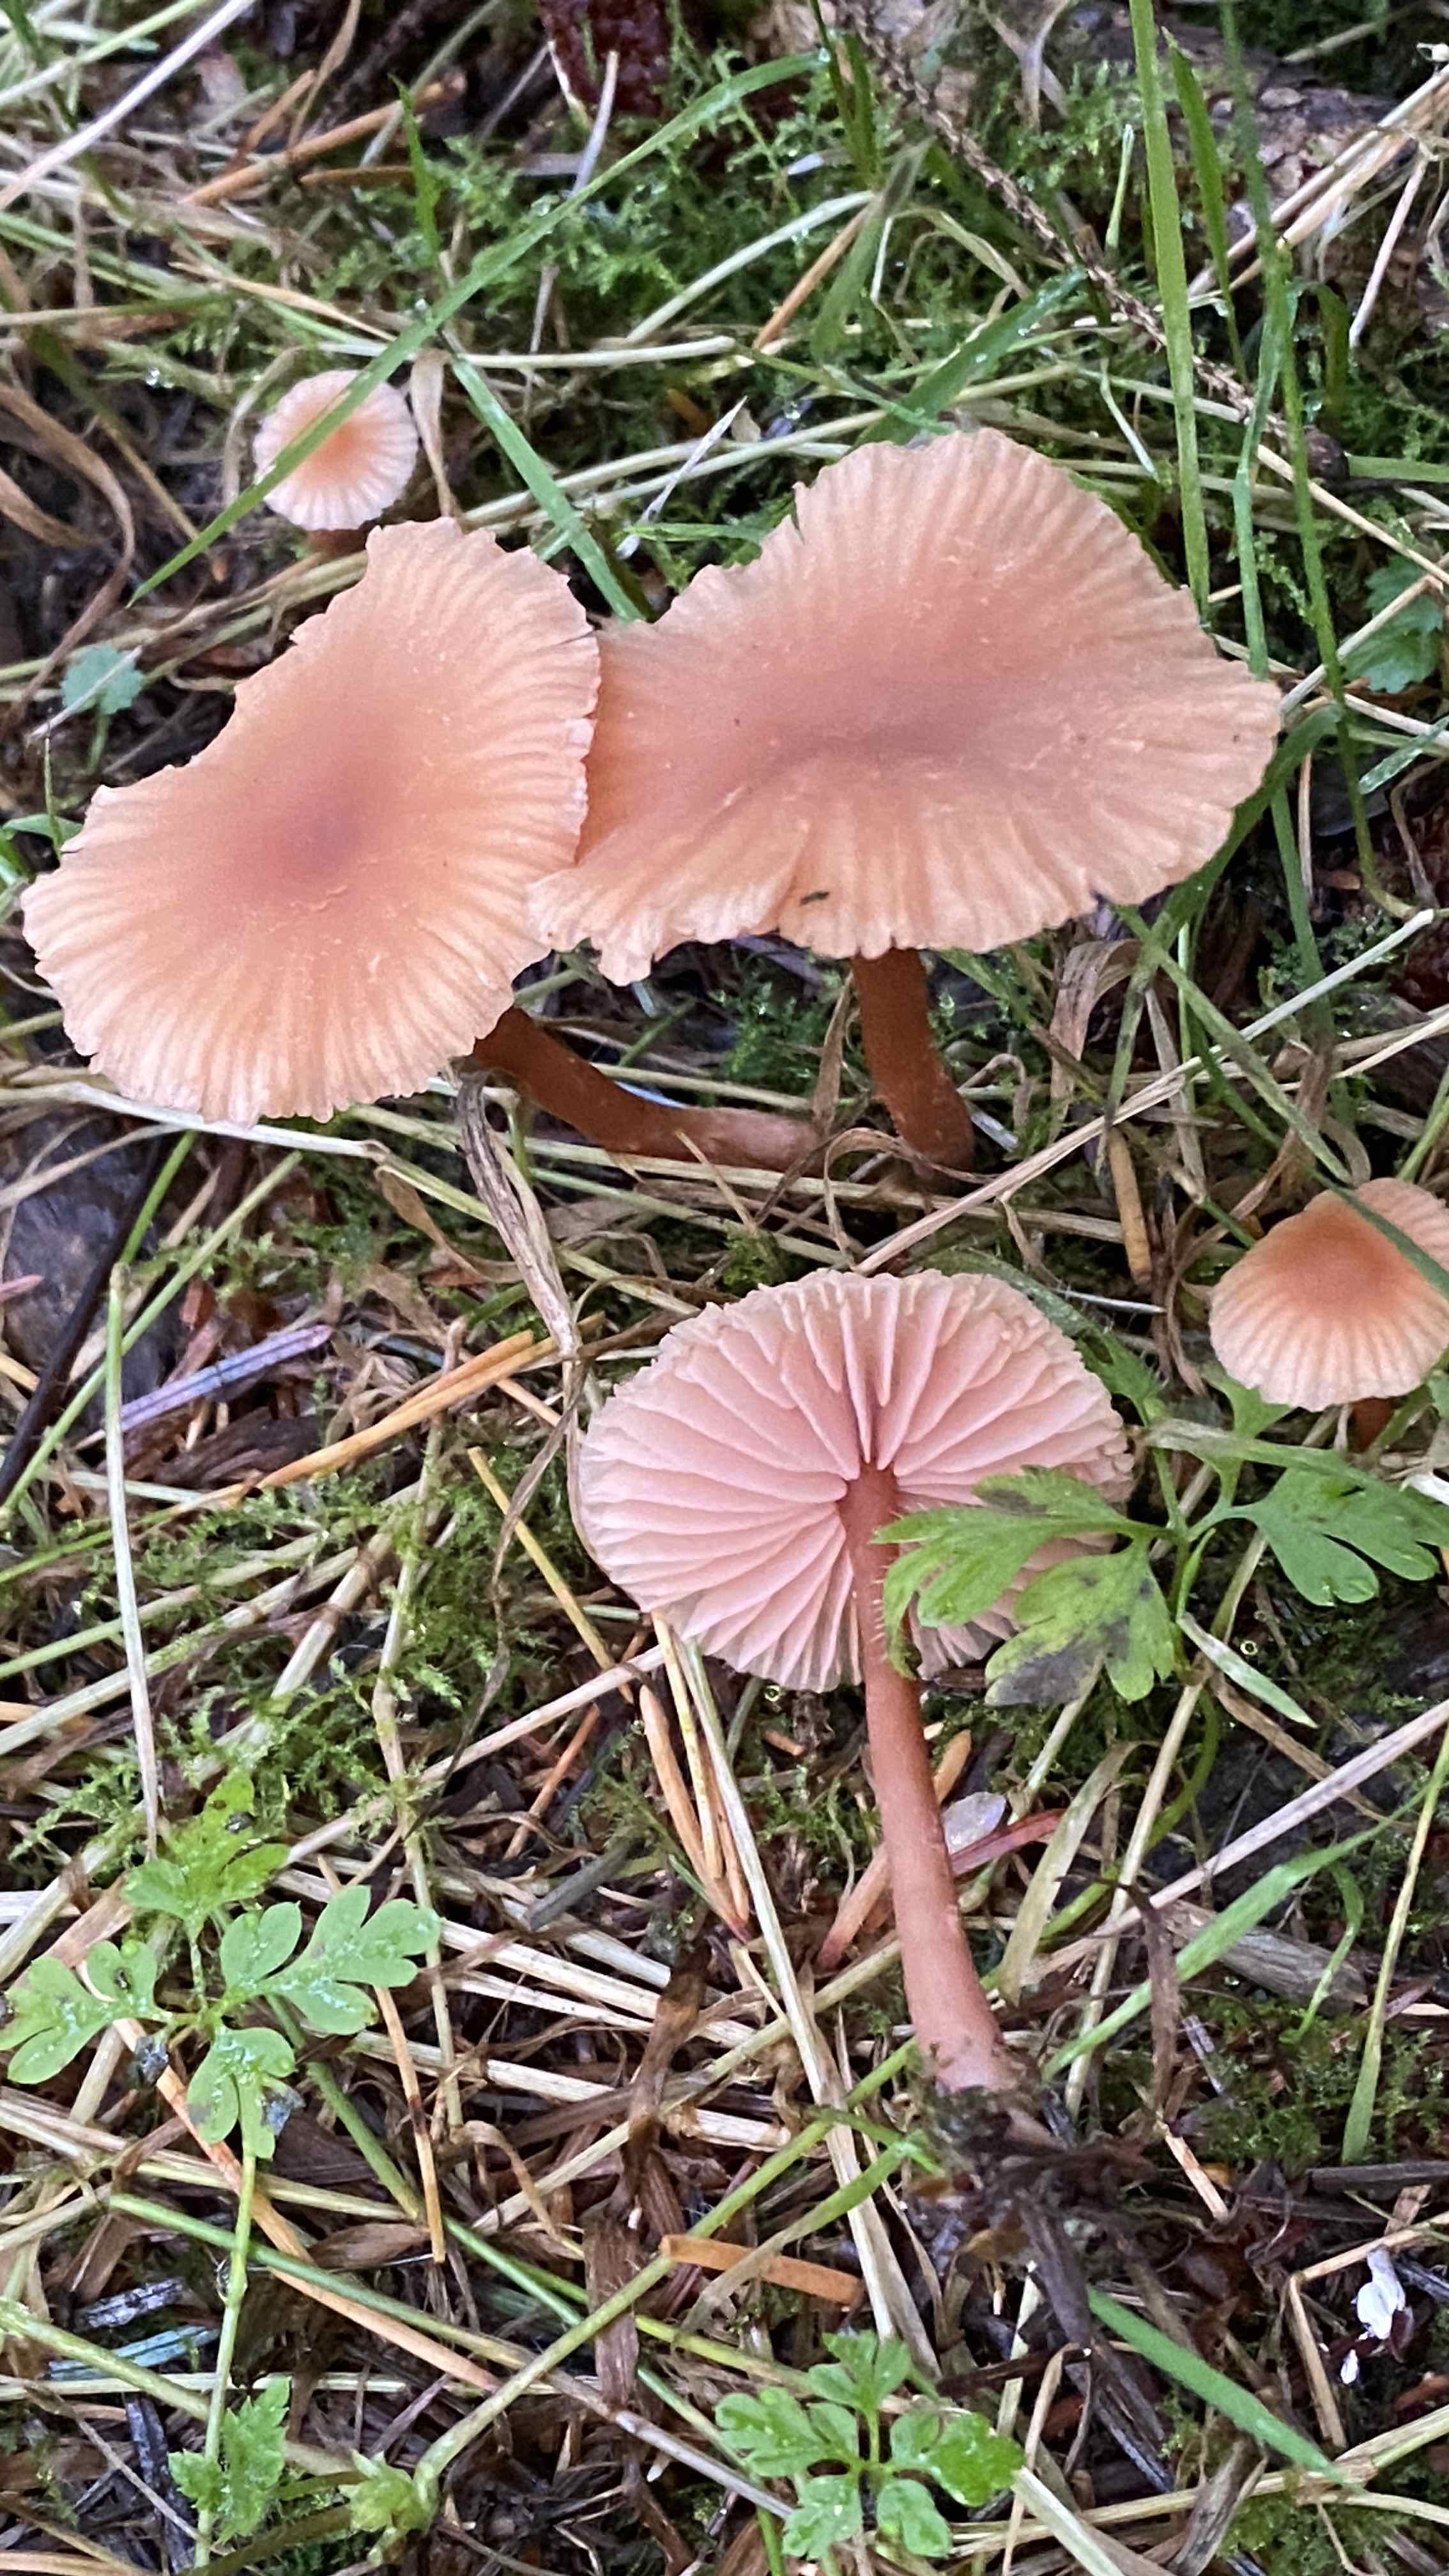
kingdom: Fungi
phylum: Basidiomycota
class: Agaricomycetes
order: Agaricales
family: Hydnangiaceae
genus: Laccaria
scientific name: Laccaria laccata
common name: rød ametysthat
